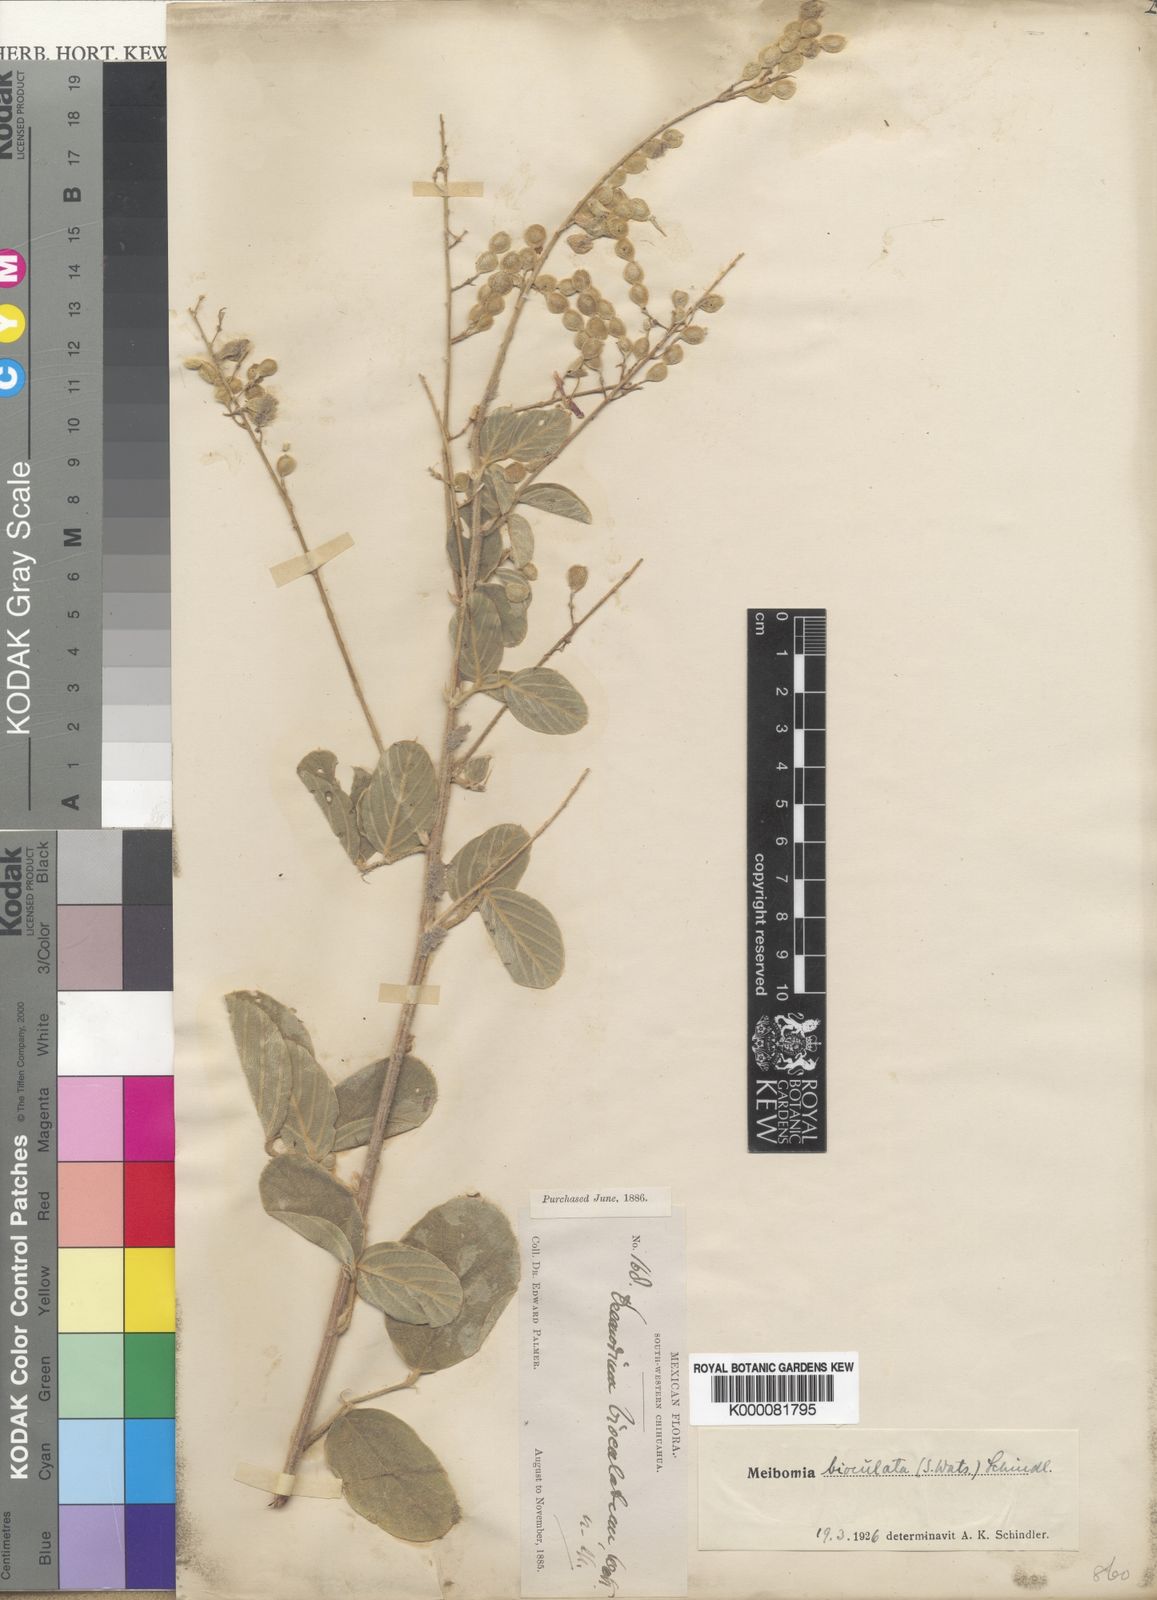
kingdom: Plantae
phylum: Tracheophyta
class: Magnoliopsida
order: Fabales
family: Fabaceae
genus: Desmodium
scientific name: Desmodium
